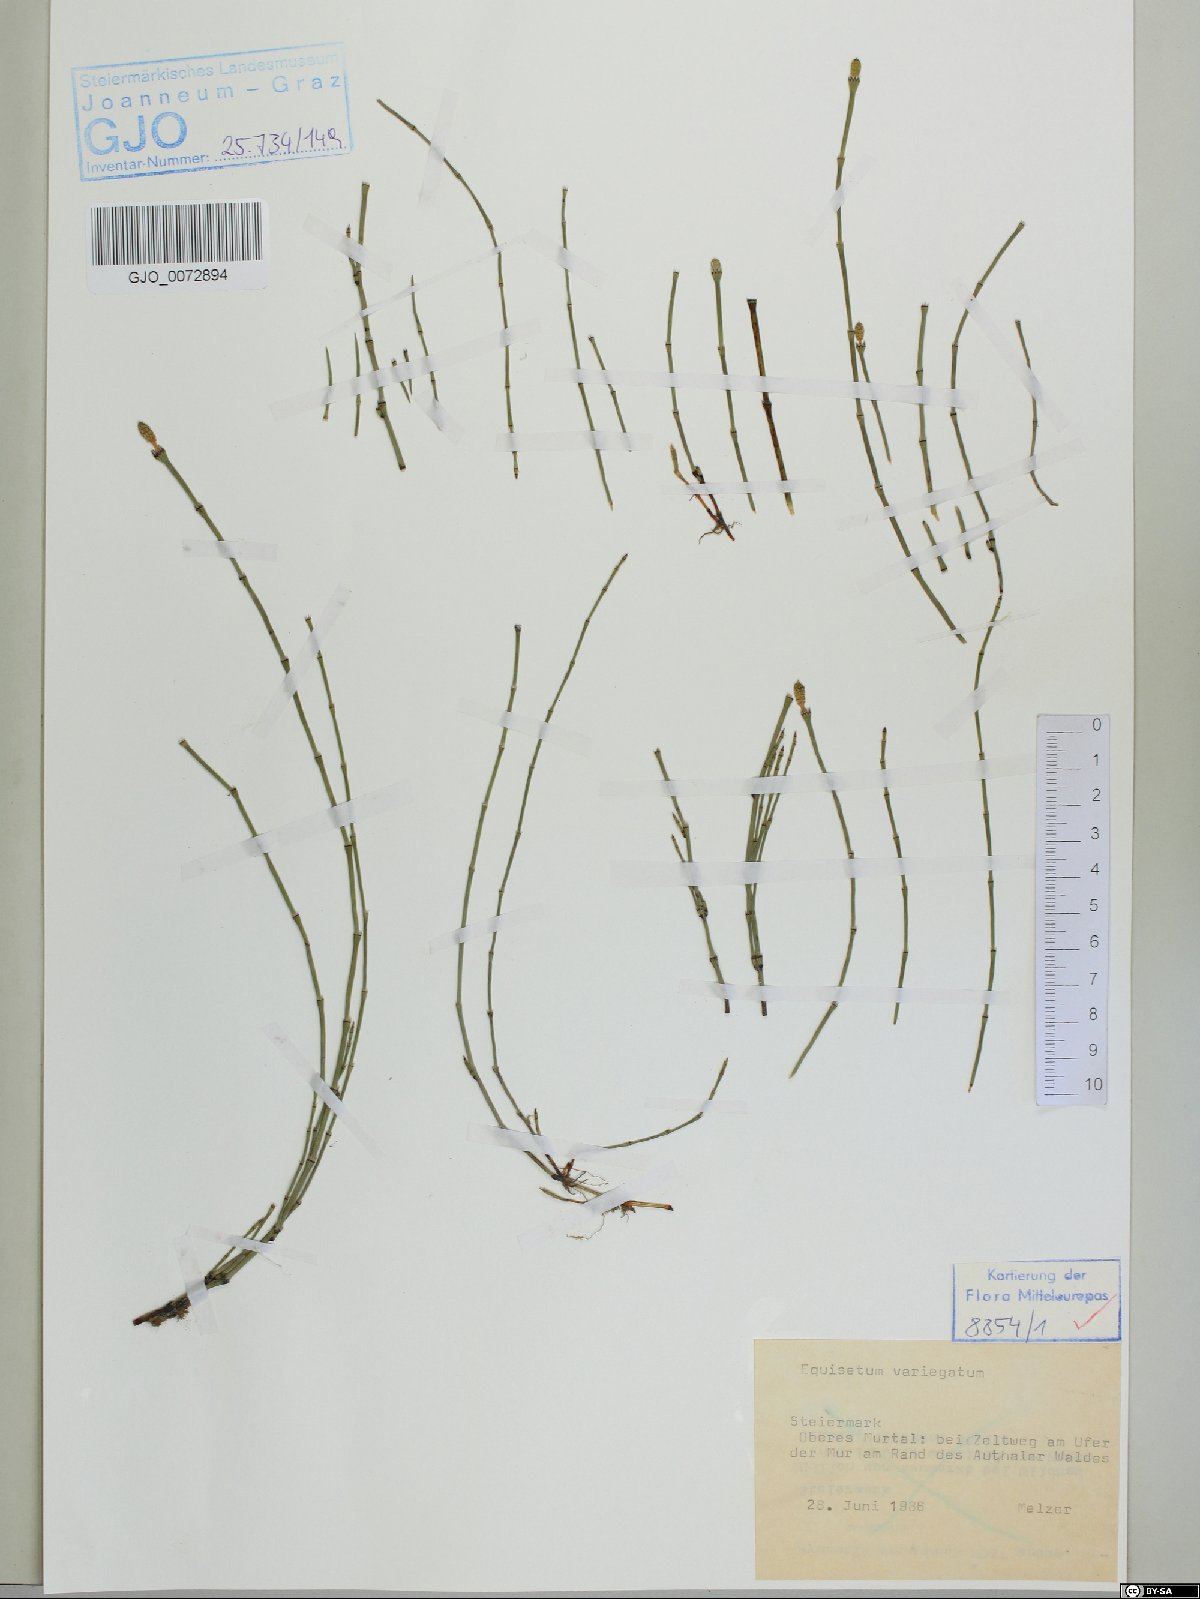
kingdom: Plantae
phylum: Tracheophyta
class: Polypodiopsida
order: Equisetales
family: Equisetaceae
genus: Equisetum
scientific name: Equisetum variegatum
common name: Variegated horsetail
